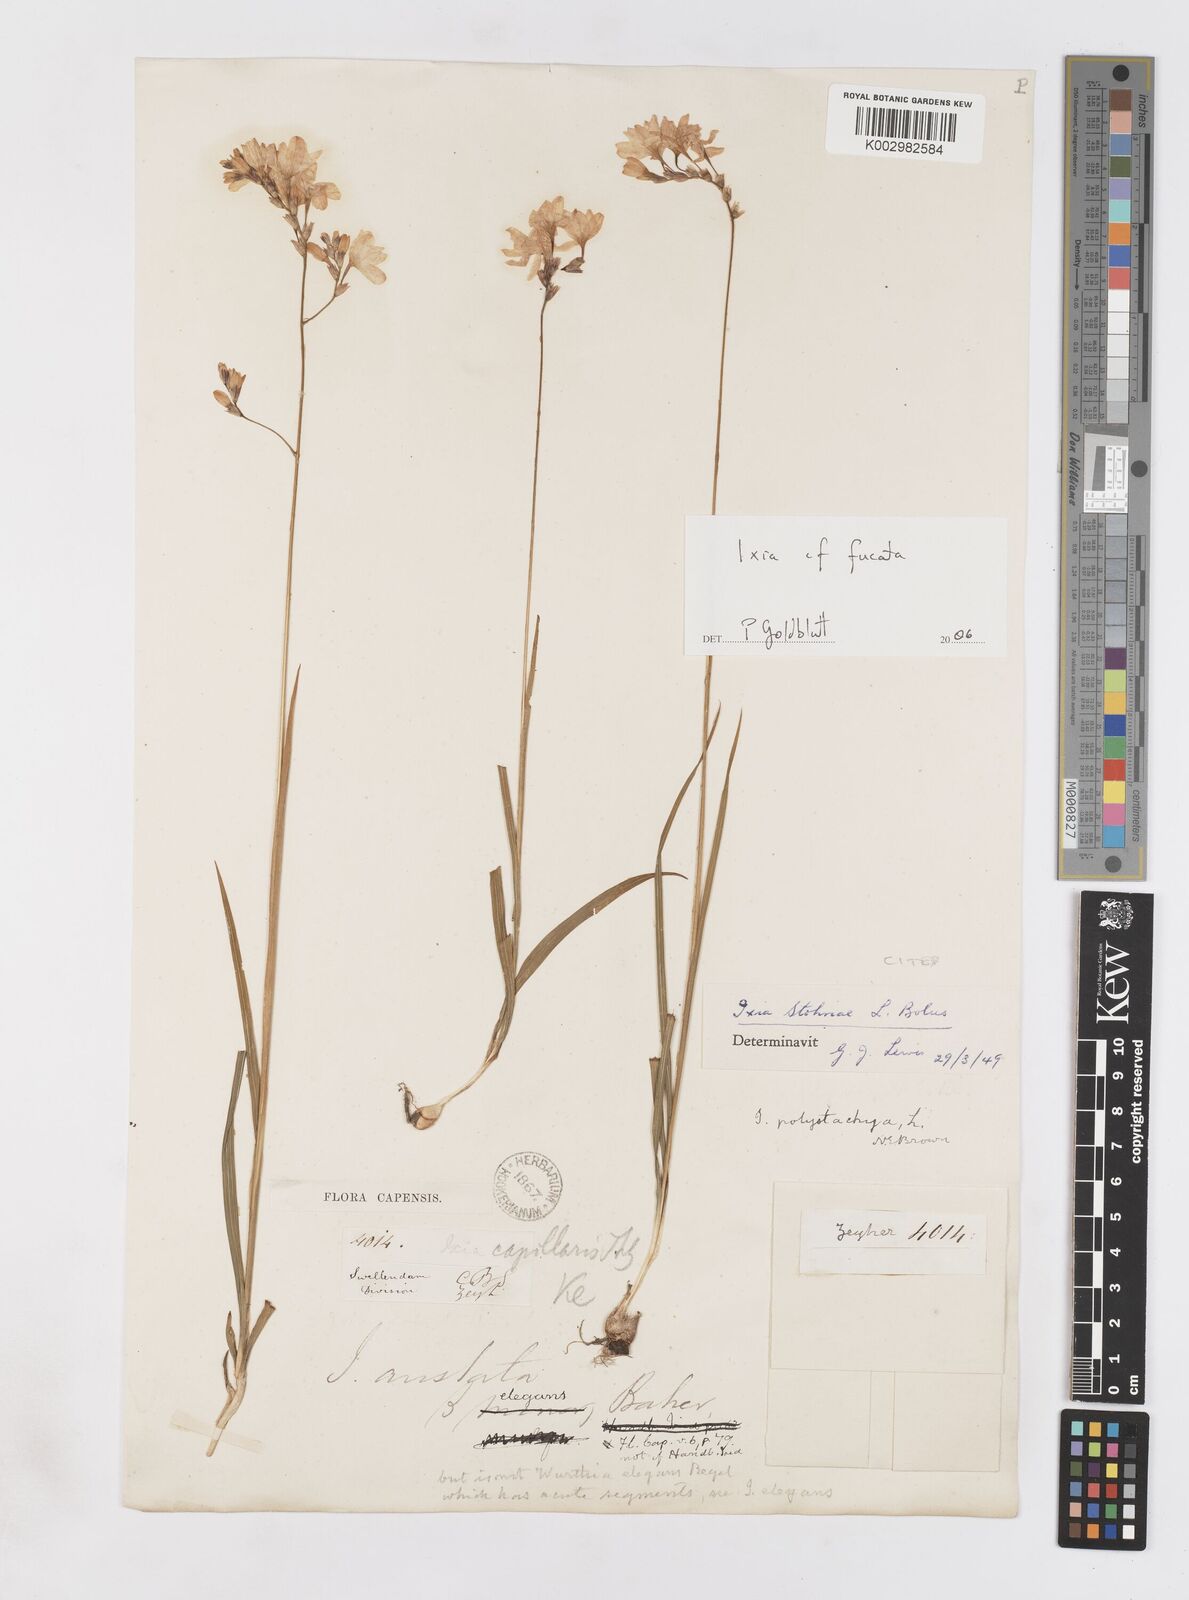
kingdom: Plantae
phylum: Tracheophyta
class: Liliopsida
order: Asparagales
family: Iridaceae
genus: Ixia
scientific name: Ixia fucata
